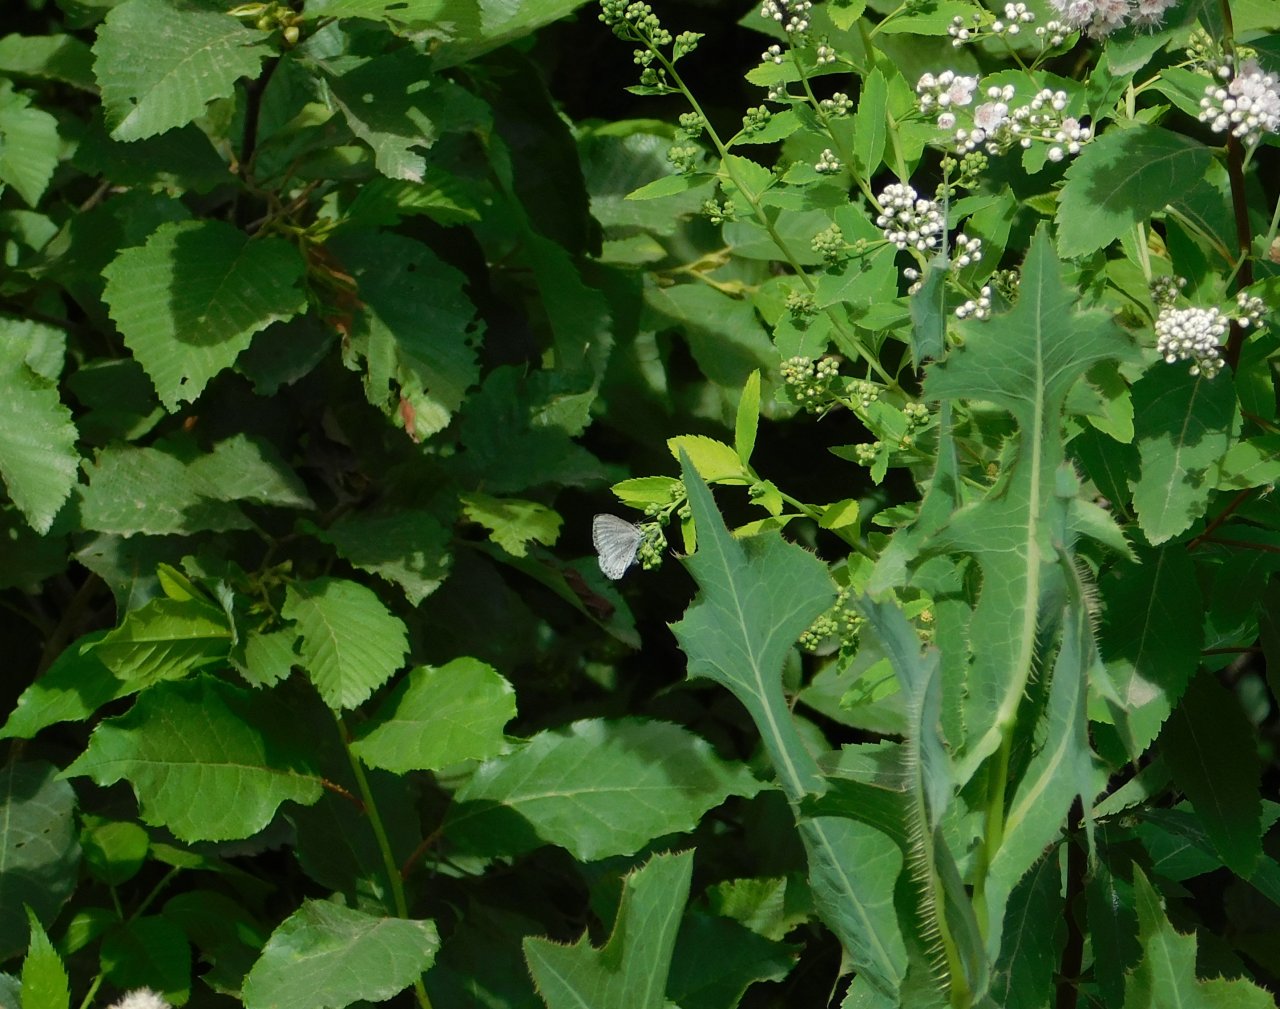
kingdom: Animalia
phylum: Arthropoda
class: Insecta
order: Lepidoptera
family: Lycaenidae
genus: Celastrina
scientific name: Celastrina
